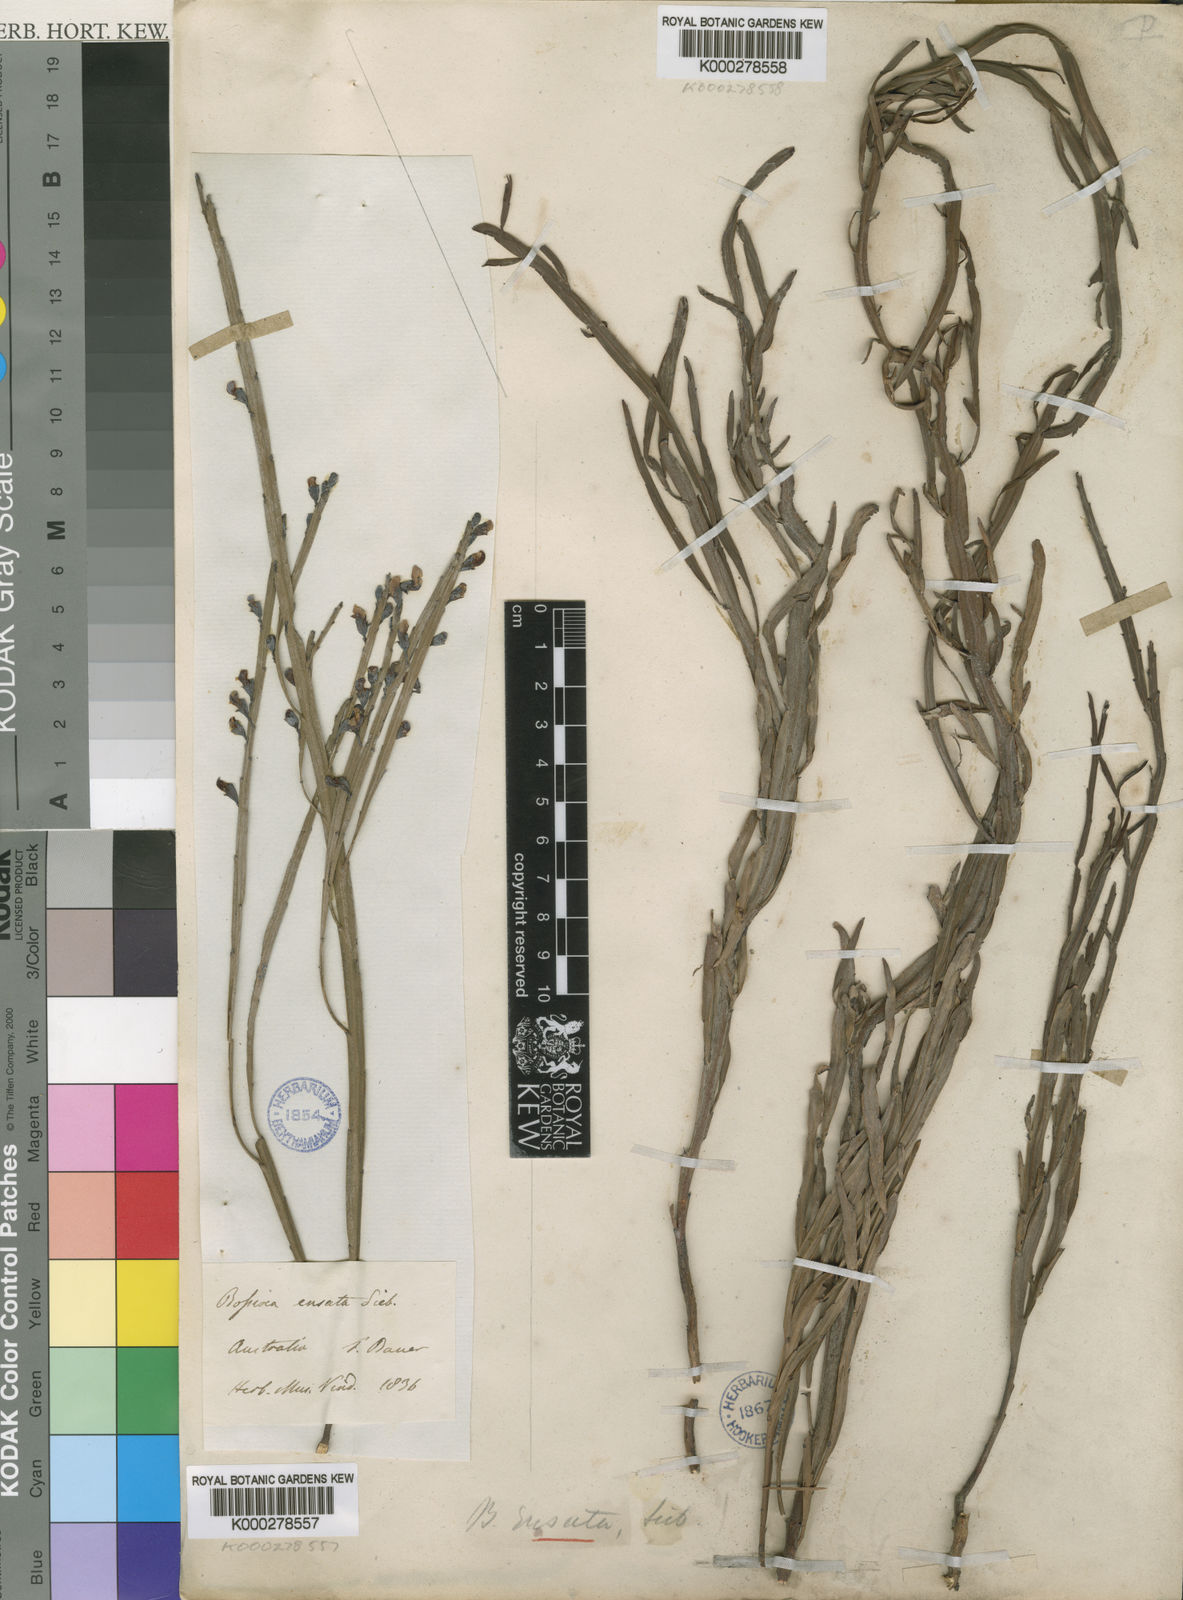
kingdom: Plantae
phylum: Tracheophyta
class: Magnoliopsida
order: Fabales
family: Fabaceae
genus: Bossiaea
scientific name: Bossiaea ensata
